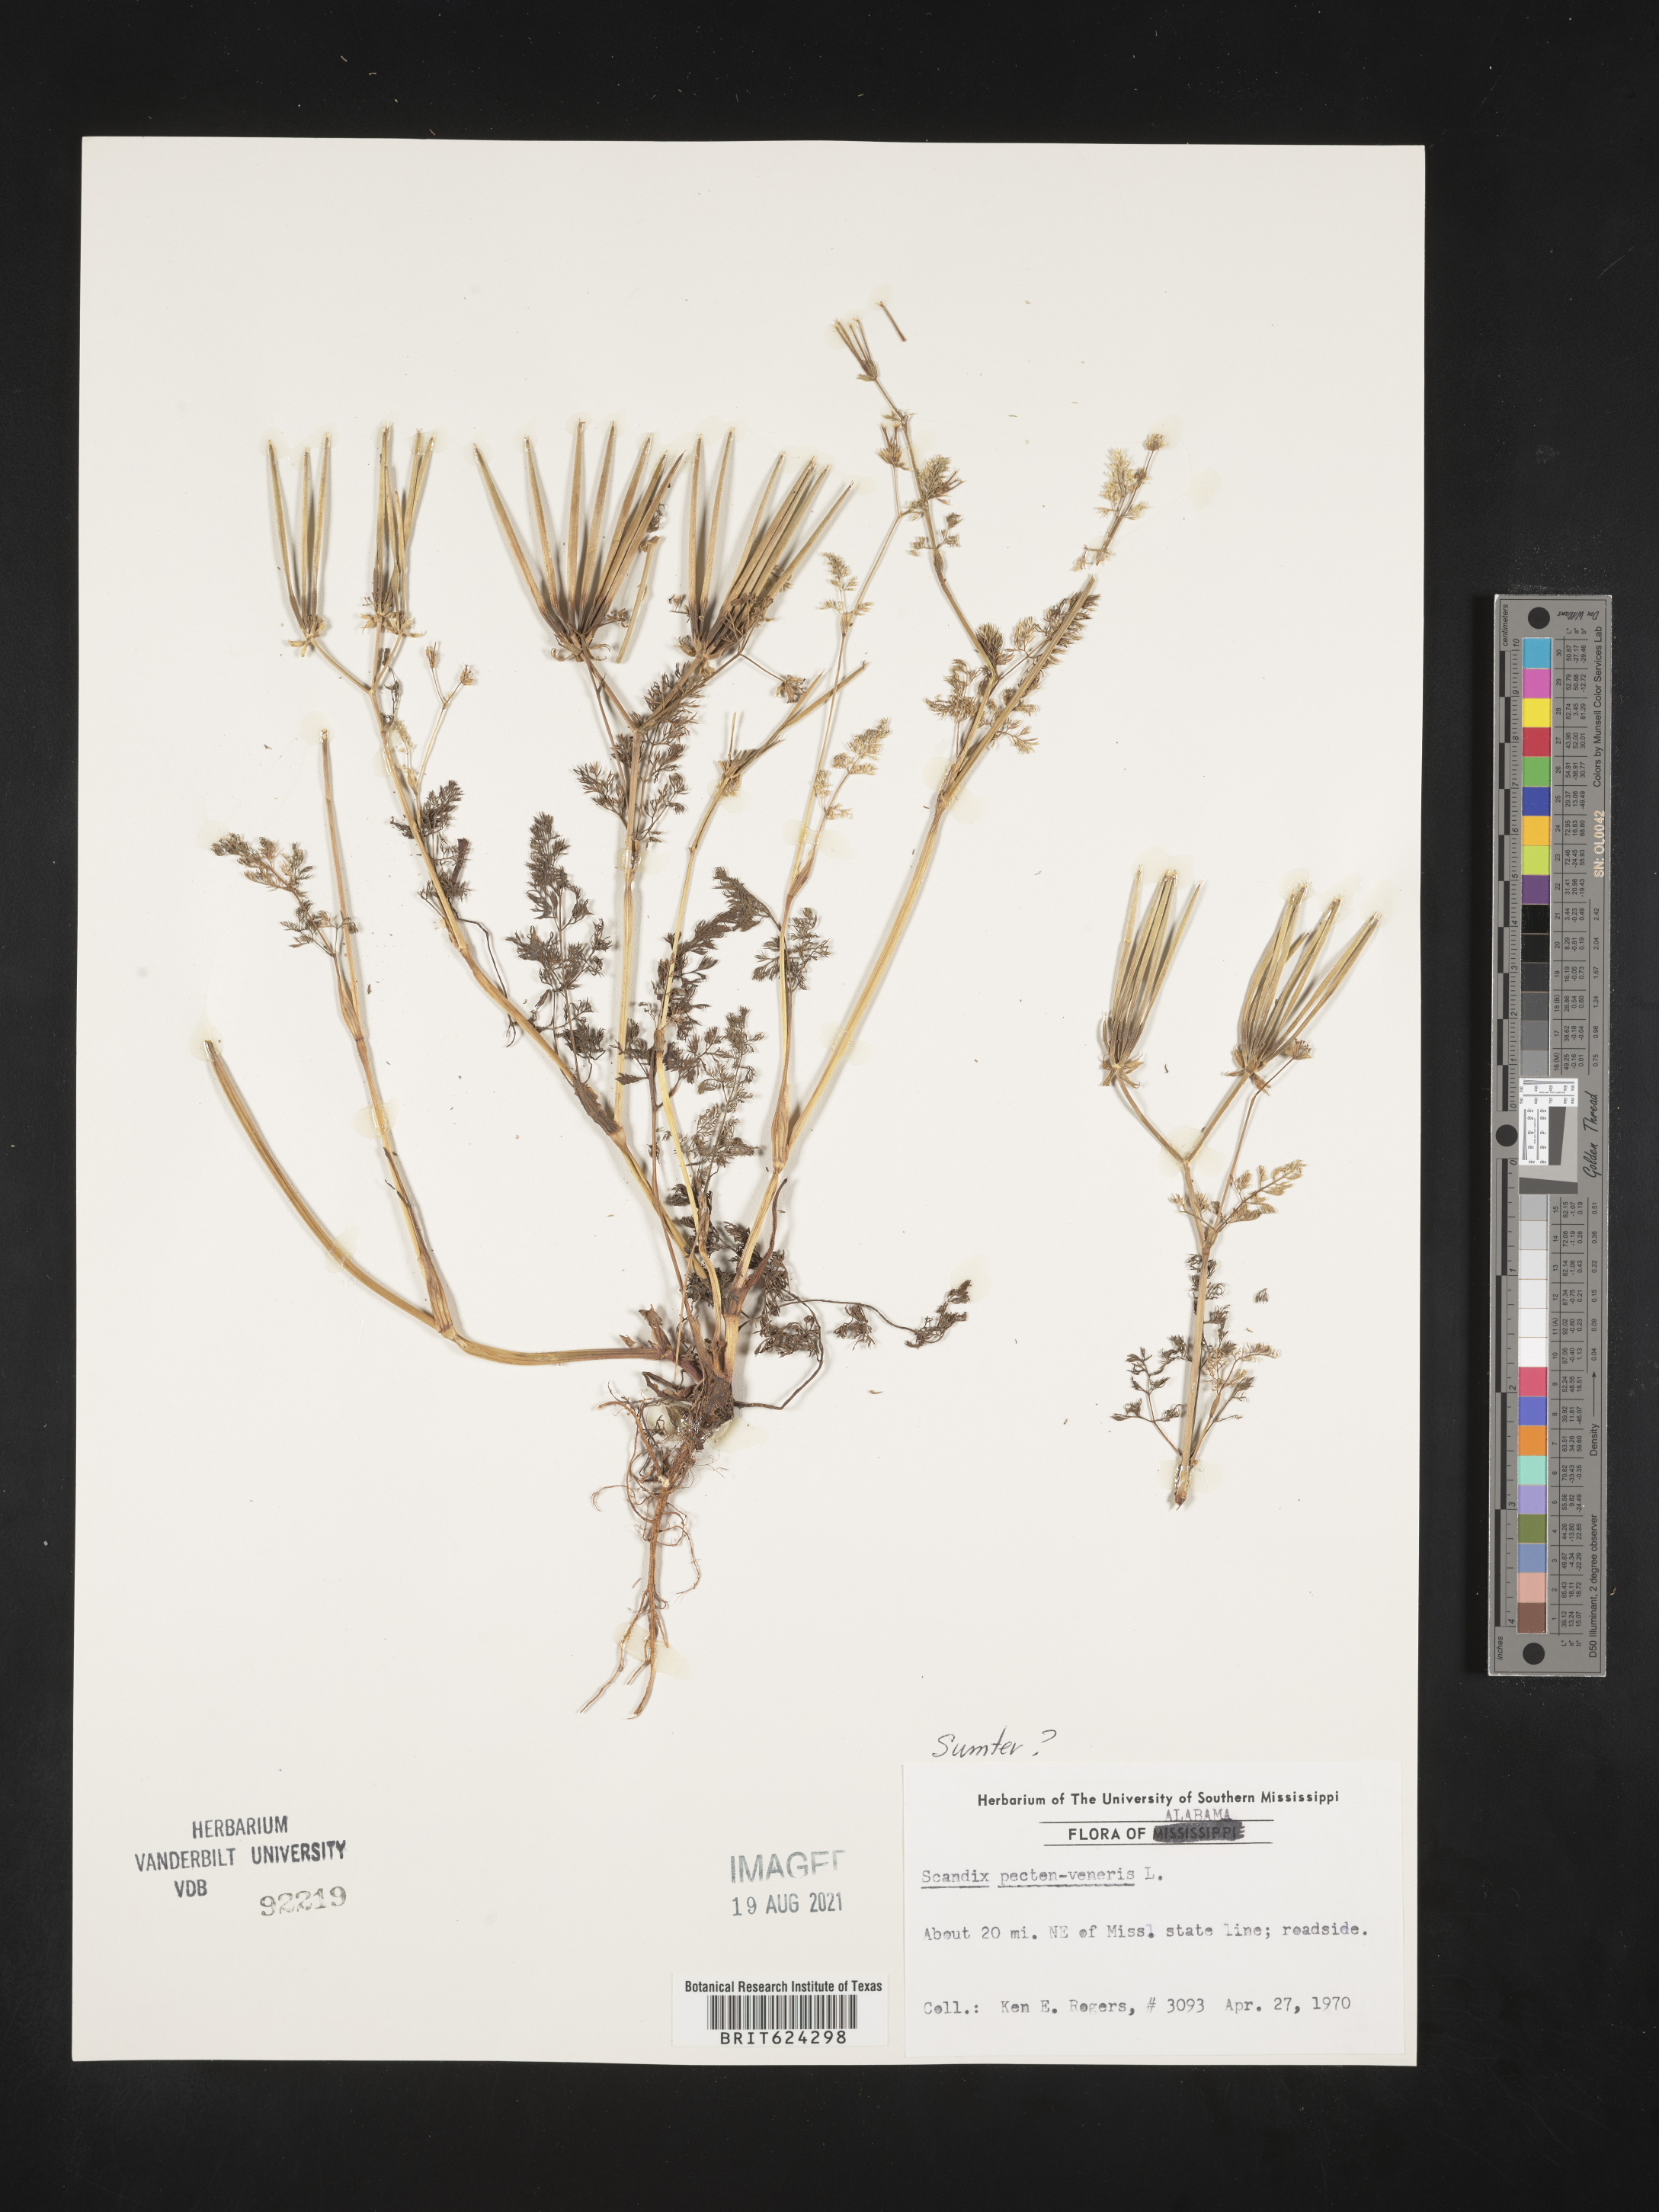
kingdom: Plantae
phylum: Tracheophyta
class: Magnoliopsida
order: Apiales
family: Apiaceae
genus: Scandix
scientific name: Scandix
